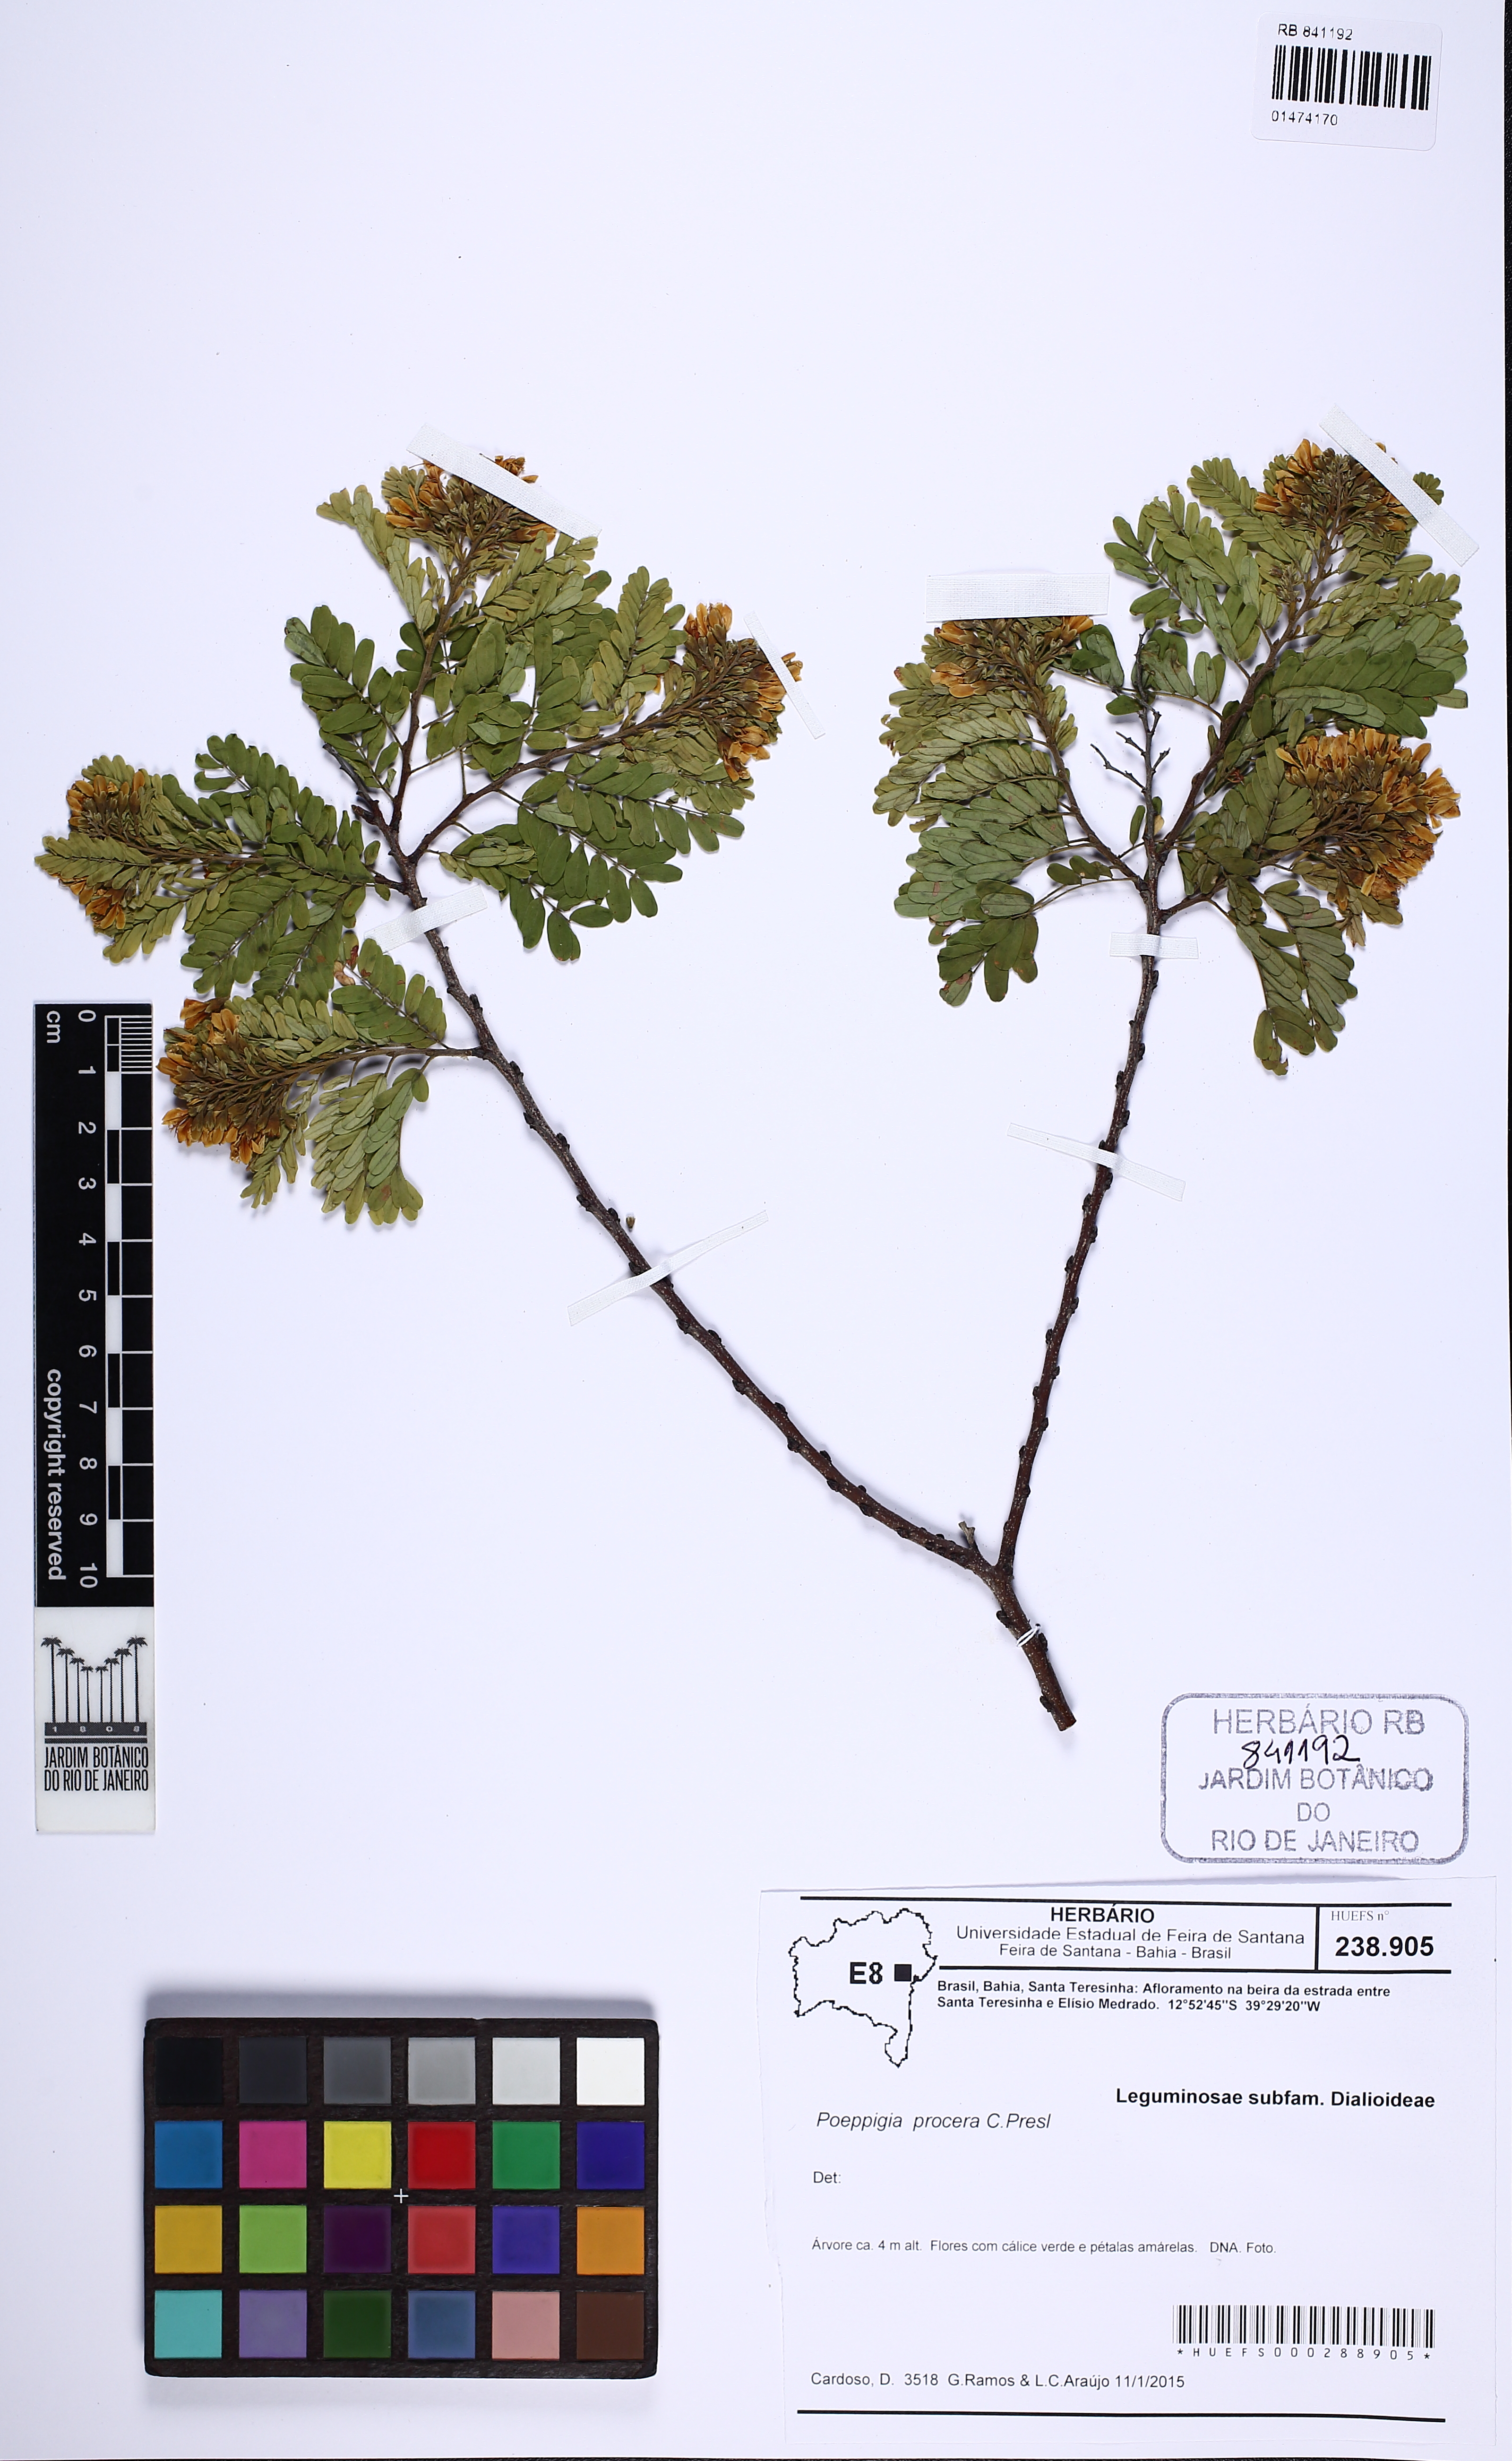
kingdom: Plantae
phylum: Tracheophyta
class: Magnoliopsida
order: Fabales
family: Fabaceae
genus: Poeppigia
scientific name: Poeppigia densiflora
